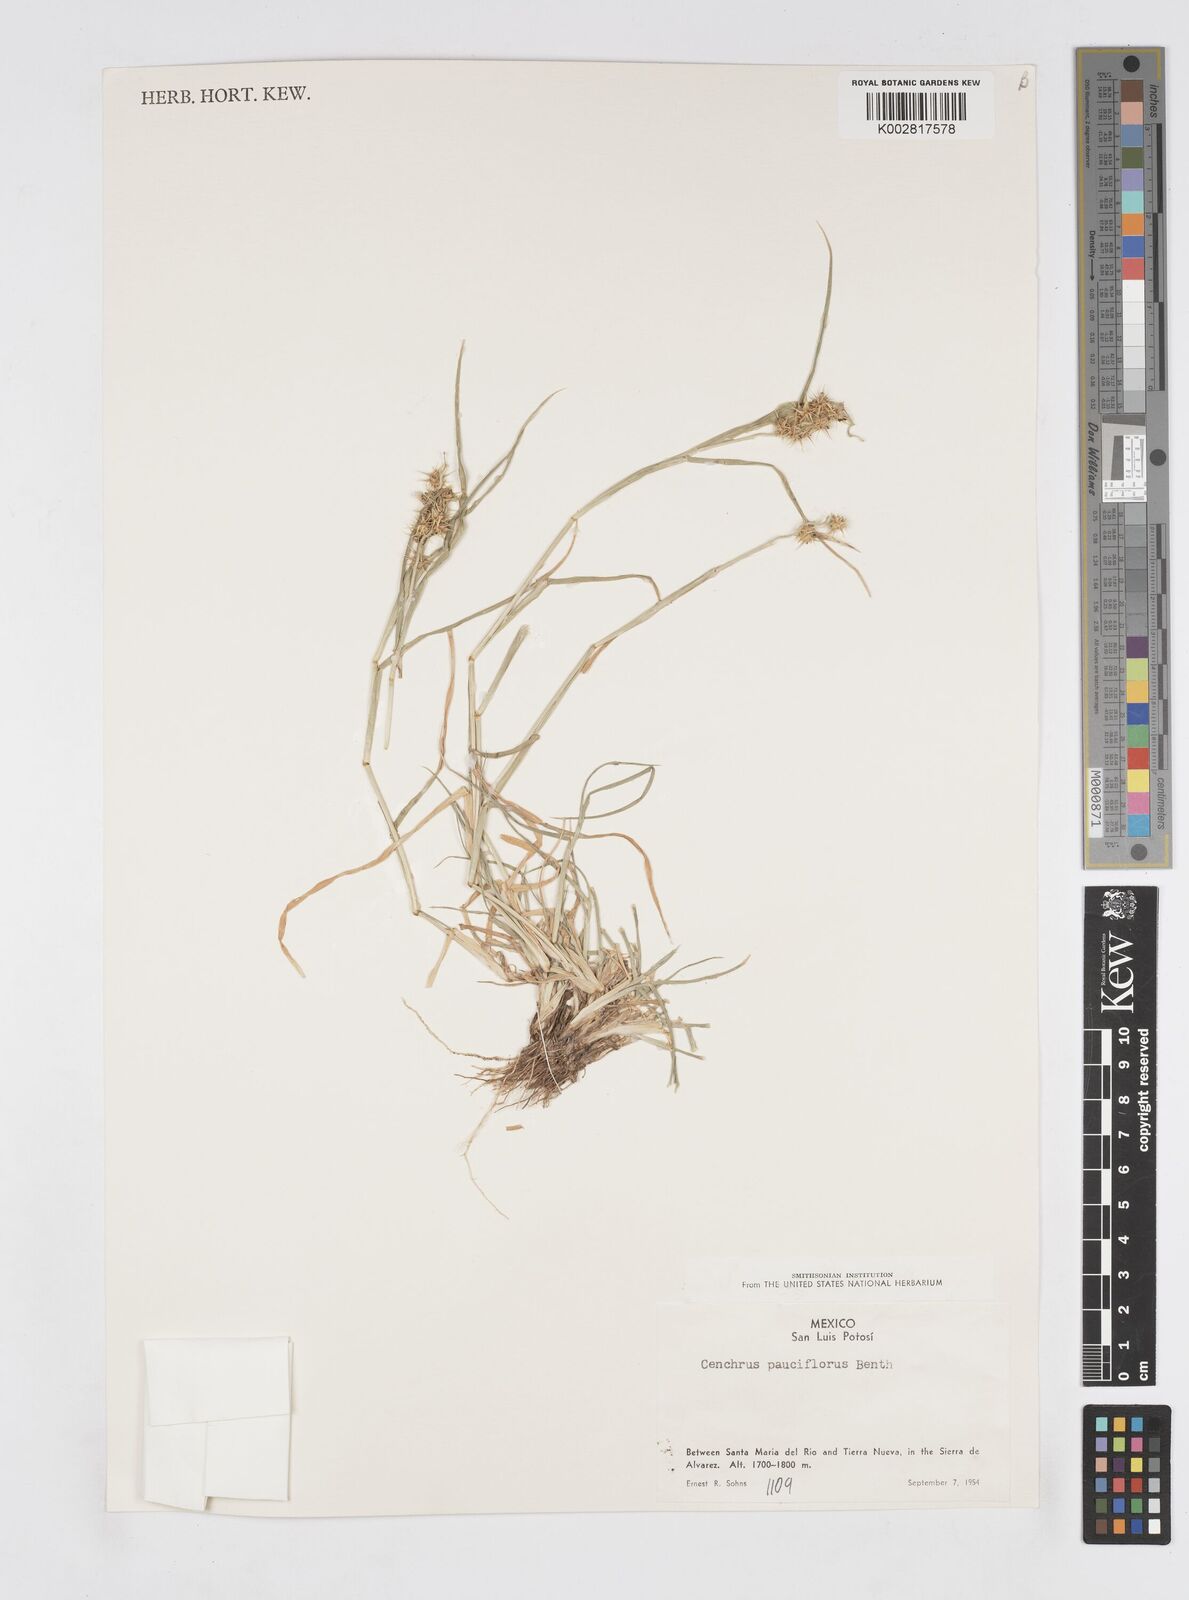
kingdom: Plantae
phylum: Tracheophyta
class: Liliopsida
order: Poales
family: Poaceae
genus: Cenchrus
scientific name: Cenchrus spinifex
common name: Coast sandbur
